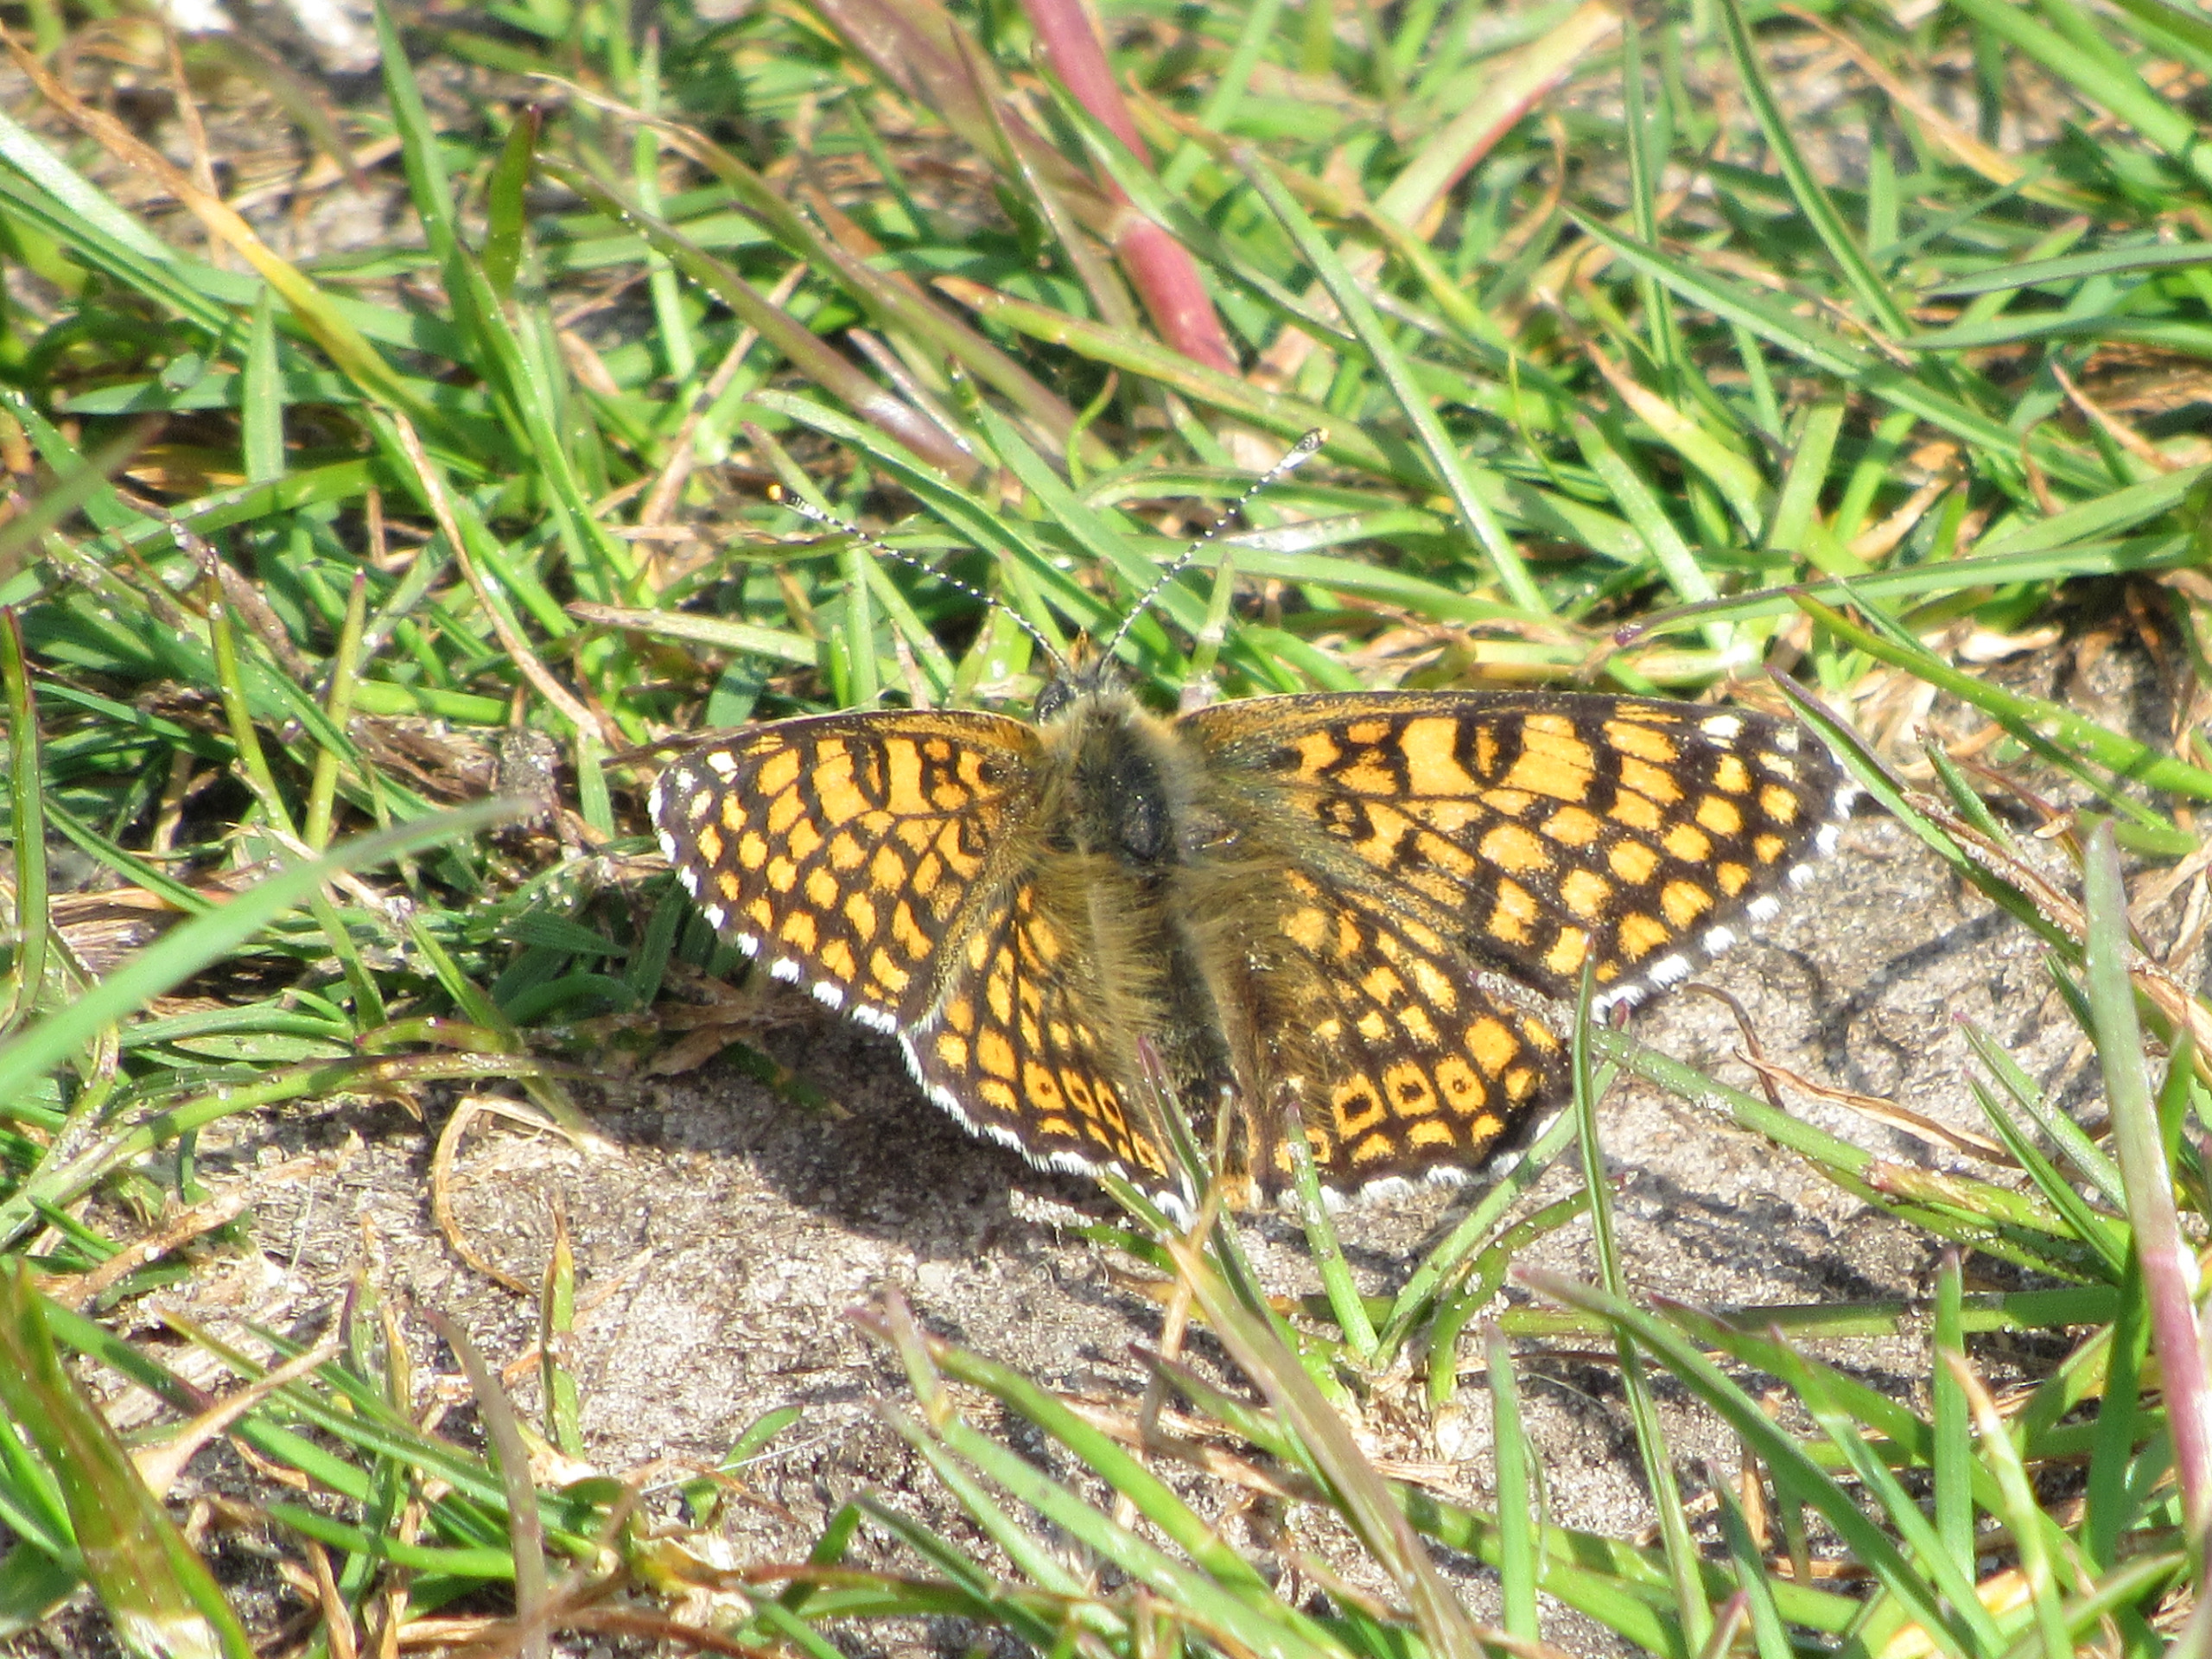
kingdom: Animalia
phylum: Arthropoda
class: Insecta
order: Lepidoptera
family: Nymphalidae
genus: Melitaea
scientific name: Melitaea cinxia
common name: Okkergul pletvinge
